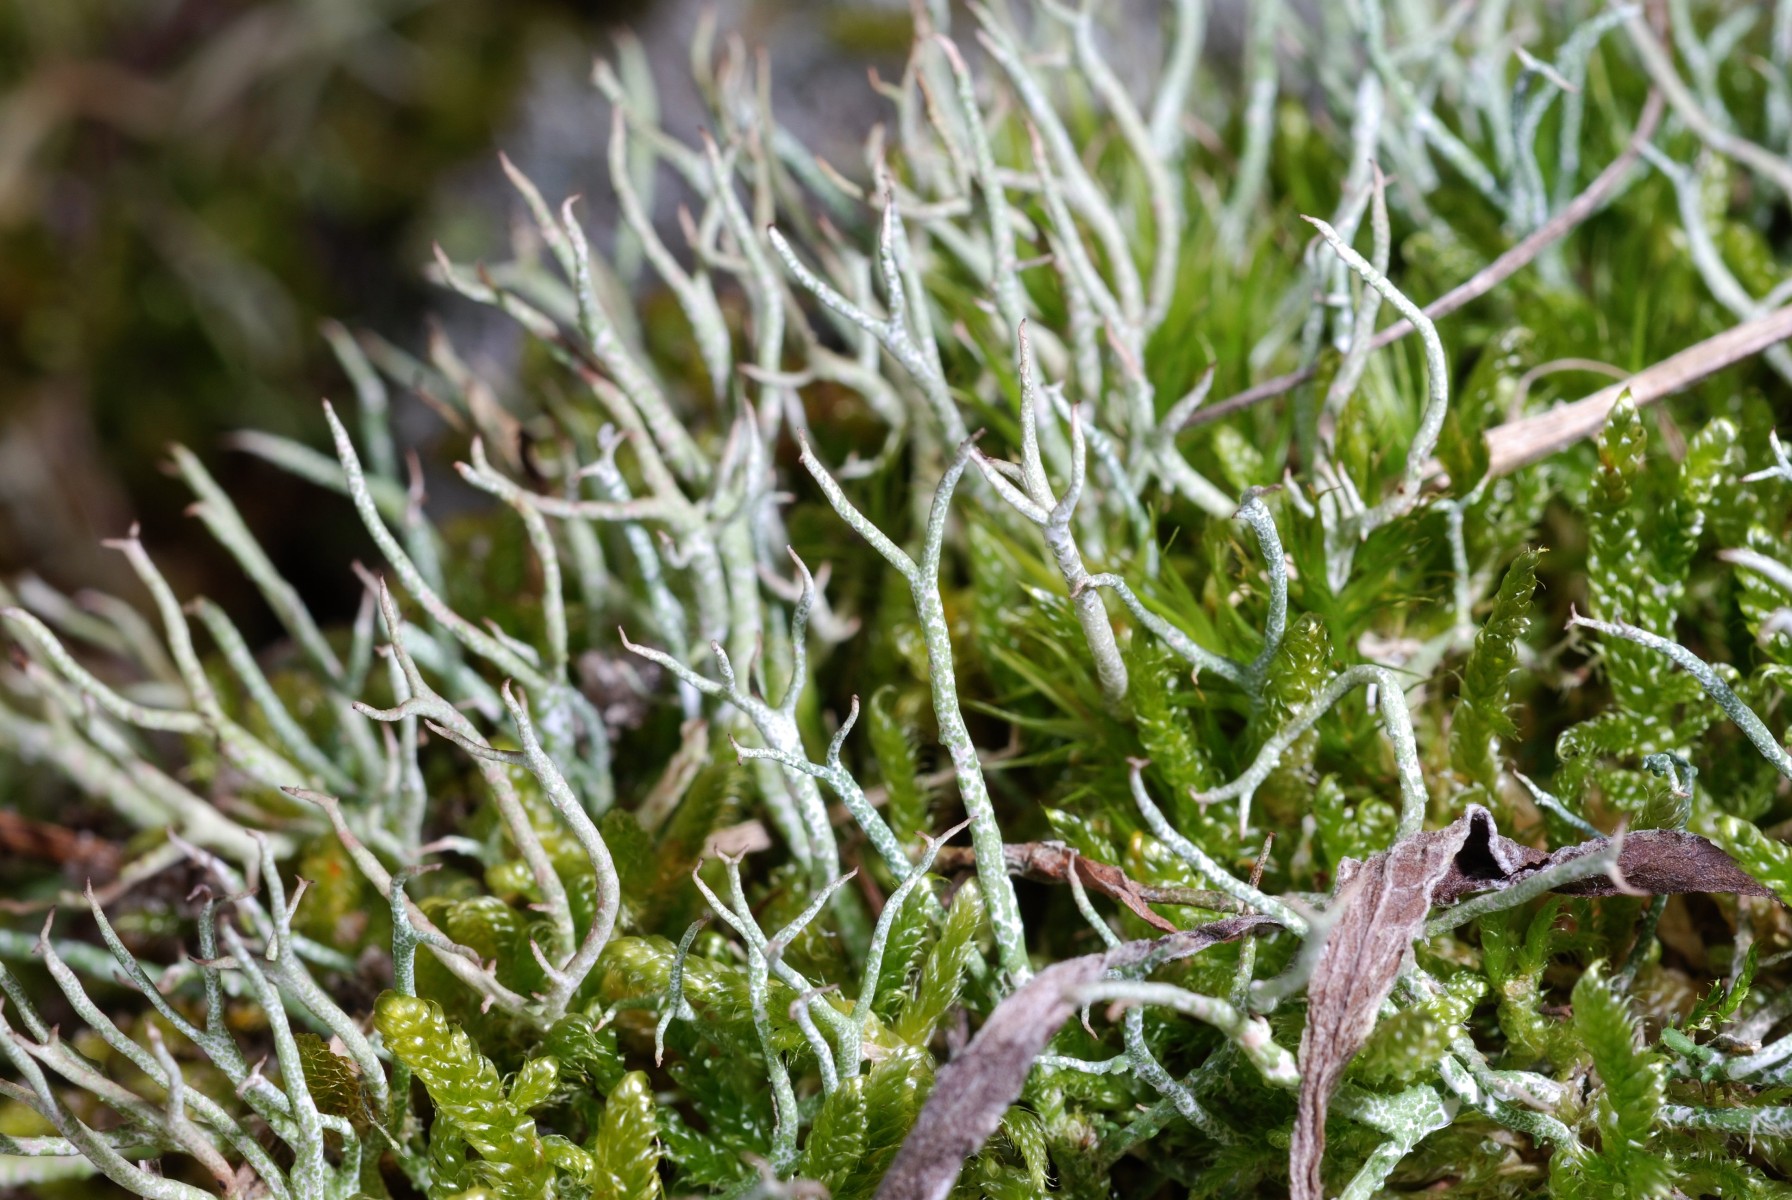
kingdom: Fungi
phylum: Ascomycota
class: Lecanoromycetes
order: Lecanorales
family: Cladoniaceae
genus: Cladonia
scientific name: Cladonia furcata
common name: kløftet bægerlav
